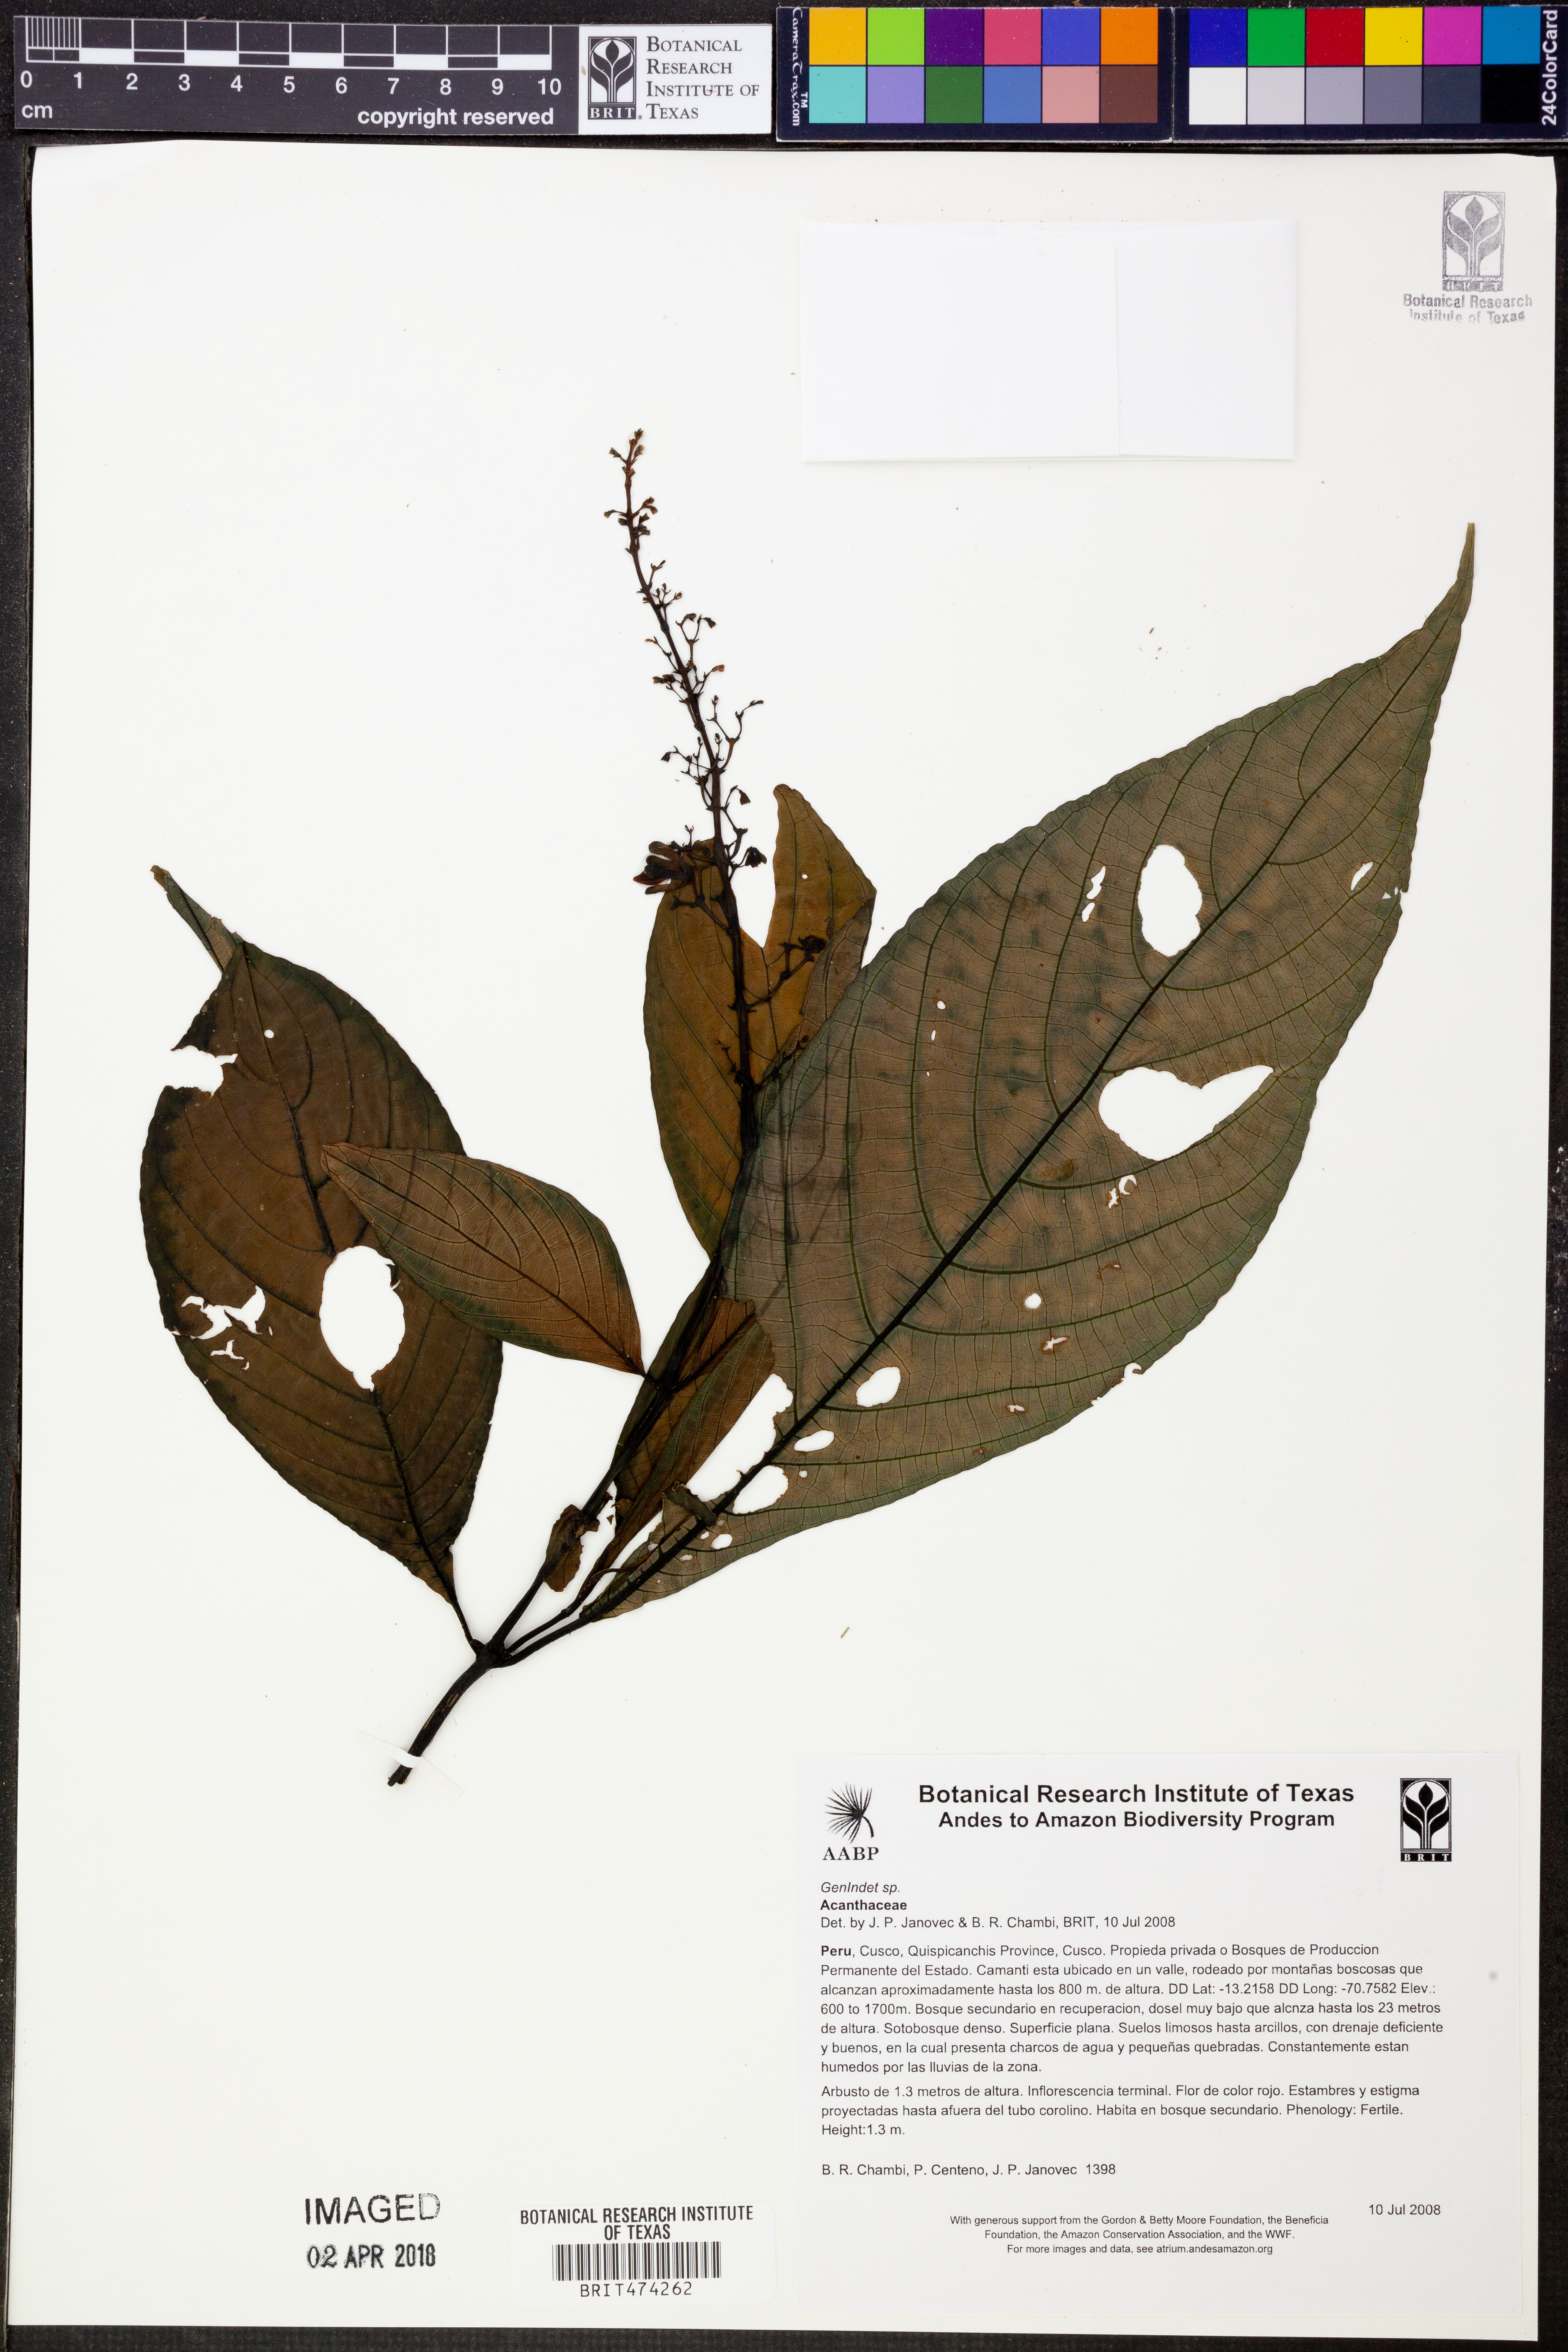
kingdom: Plantae
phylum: Tracheophyta
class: Magnoliopsida
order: Lamiales
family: Acanthaceae
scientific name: Acanthaceae
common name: Acanthaceae
